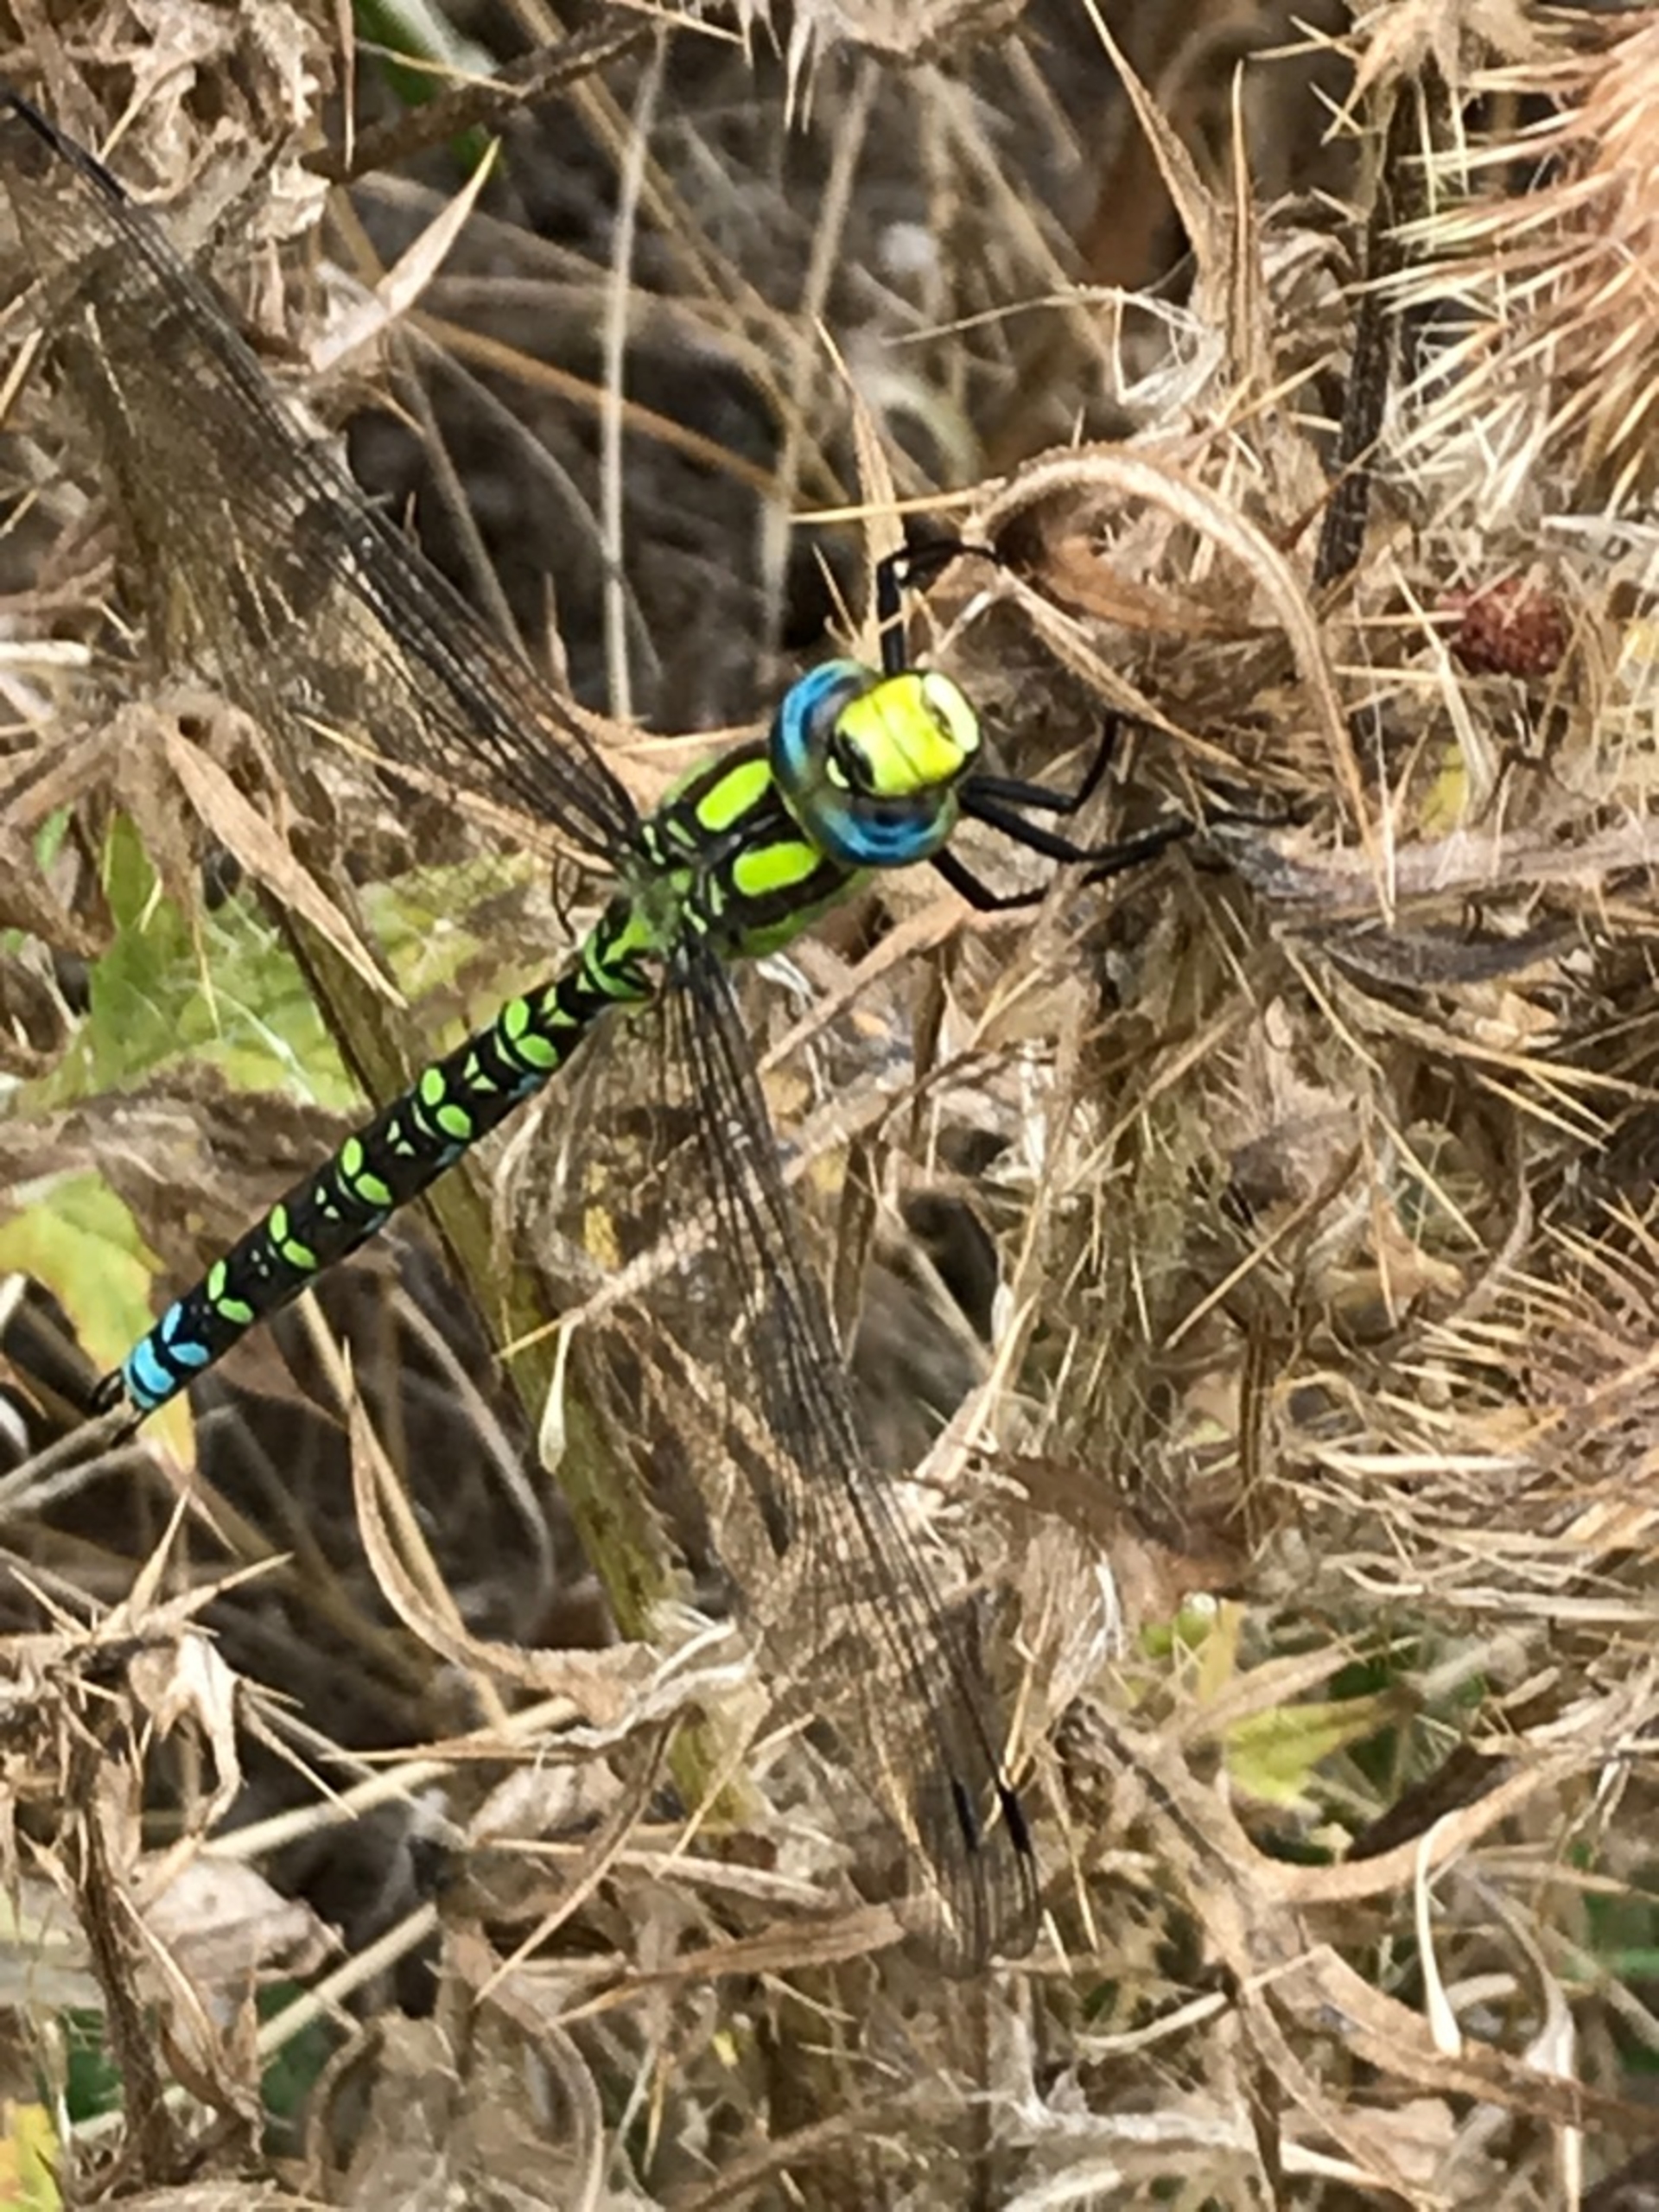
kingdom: Animalia
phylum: Arthropoda
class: Insecta
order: Odonata
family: Aeshnidae
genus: Aeshna
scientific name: Aeshna cyanea
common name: Blå mosaikguldsmed
